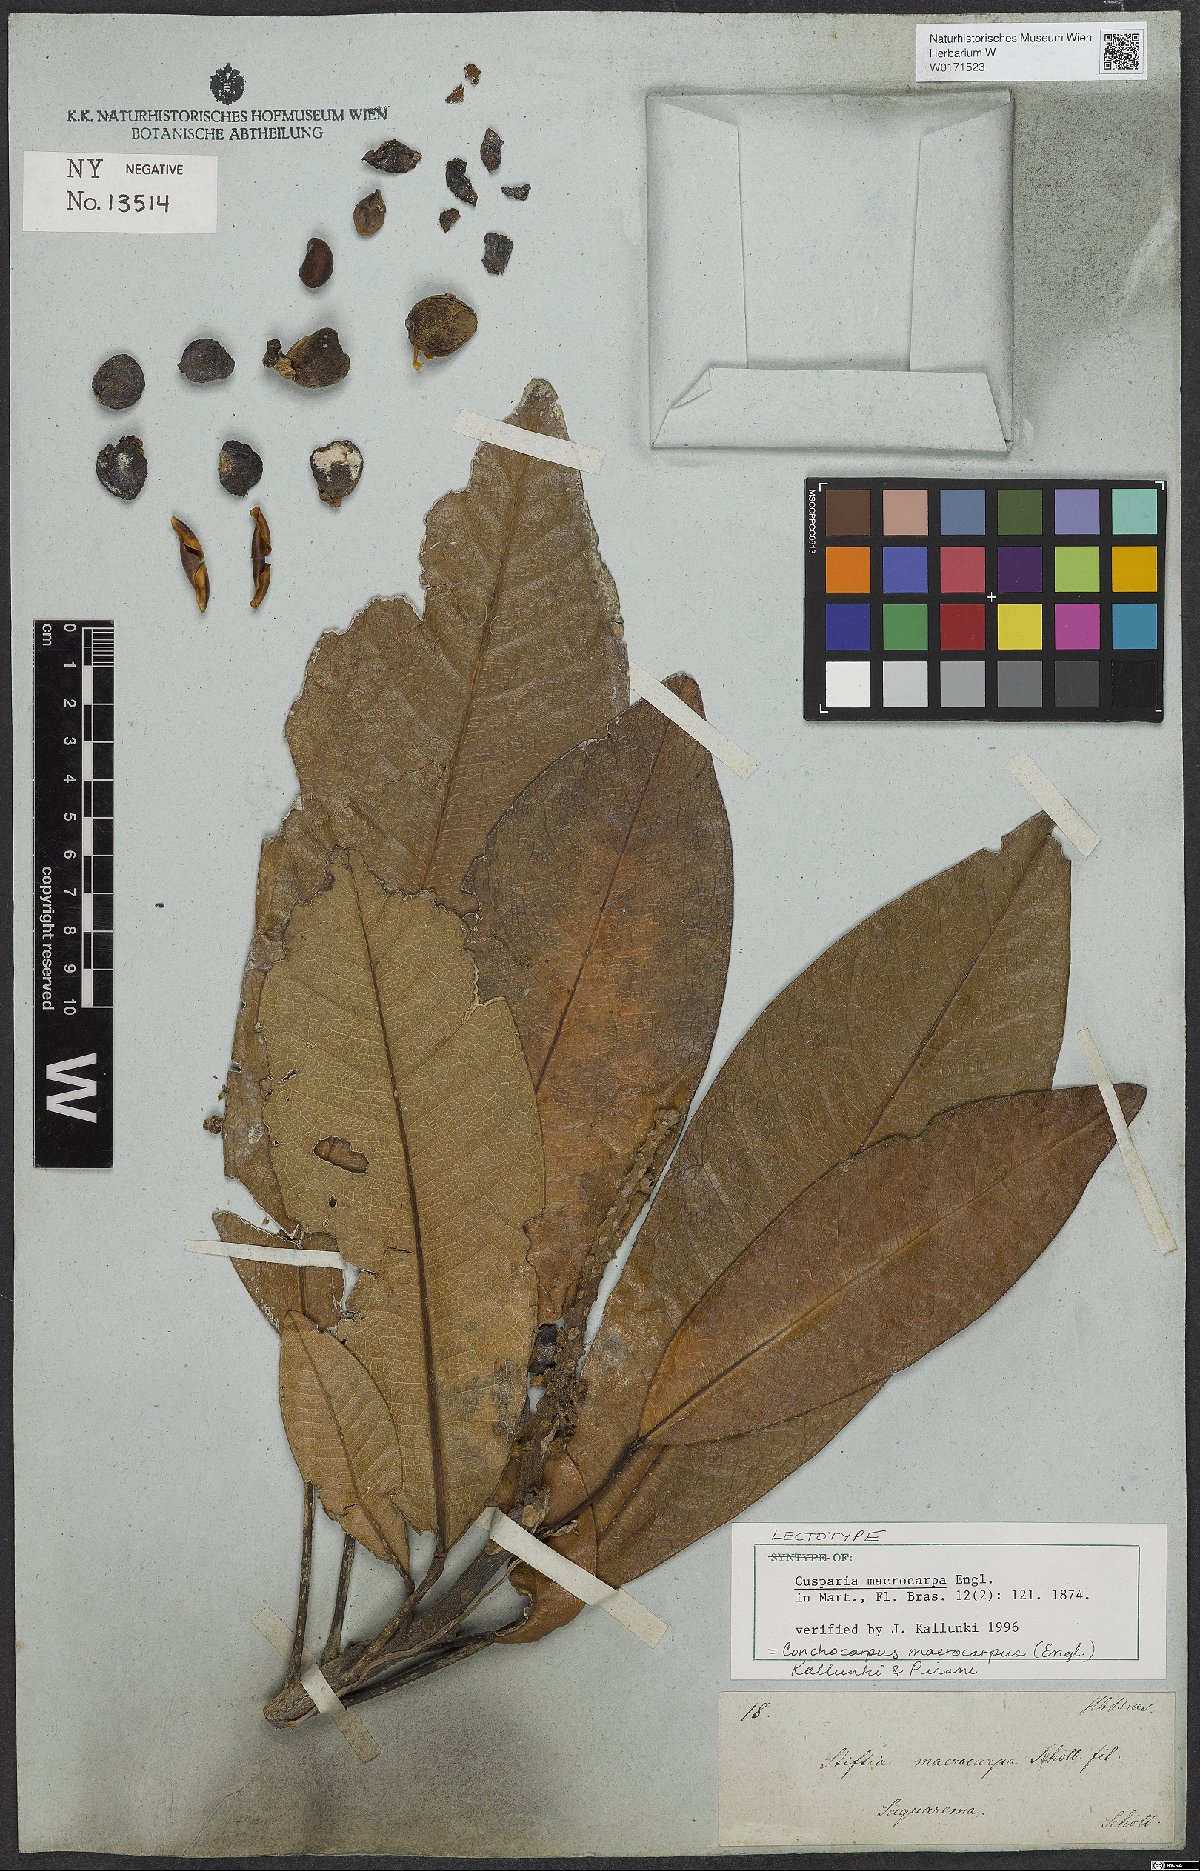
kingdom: Plantae
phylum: Tracheophyta
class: Magnoliopsida
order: Sapindales
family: Rutaceae
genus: Conchocarpus
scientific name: Conchocarpus macrocarpus
